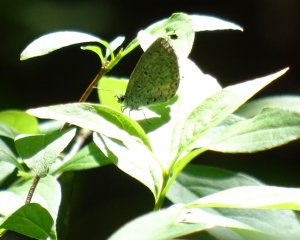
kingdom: Animalia
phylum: Arthropoda
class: Insecta
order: Lepidoptera
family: Lycaenidae
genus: Celastrina
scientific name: Celastrina
